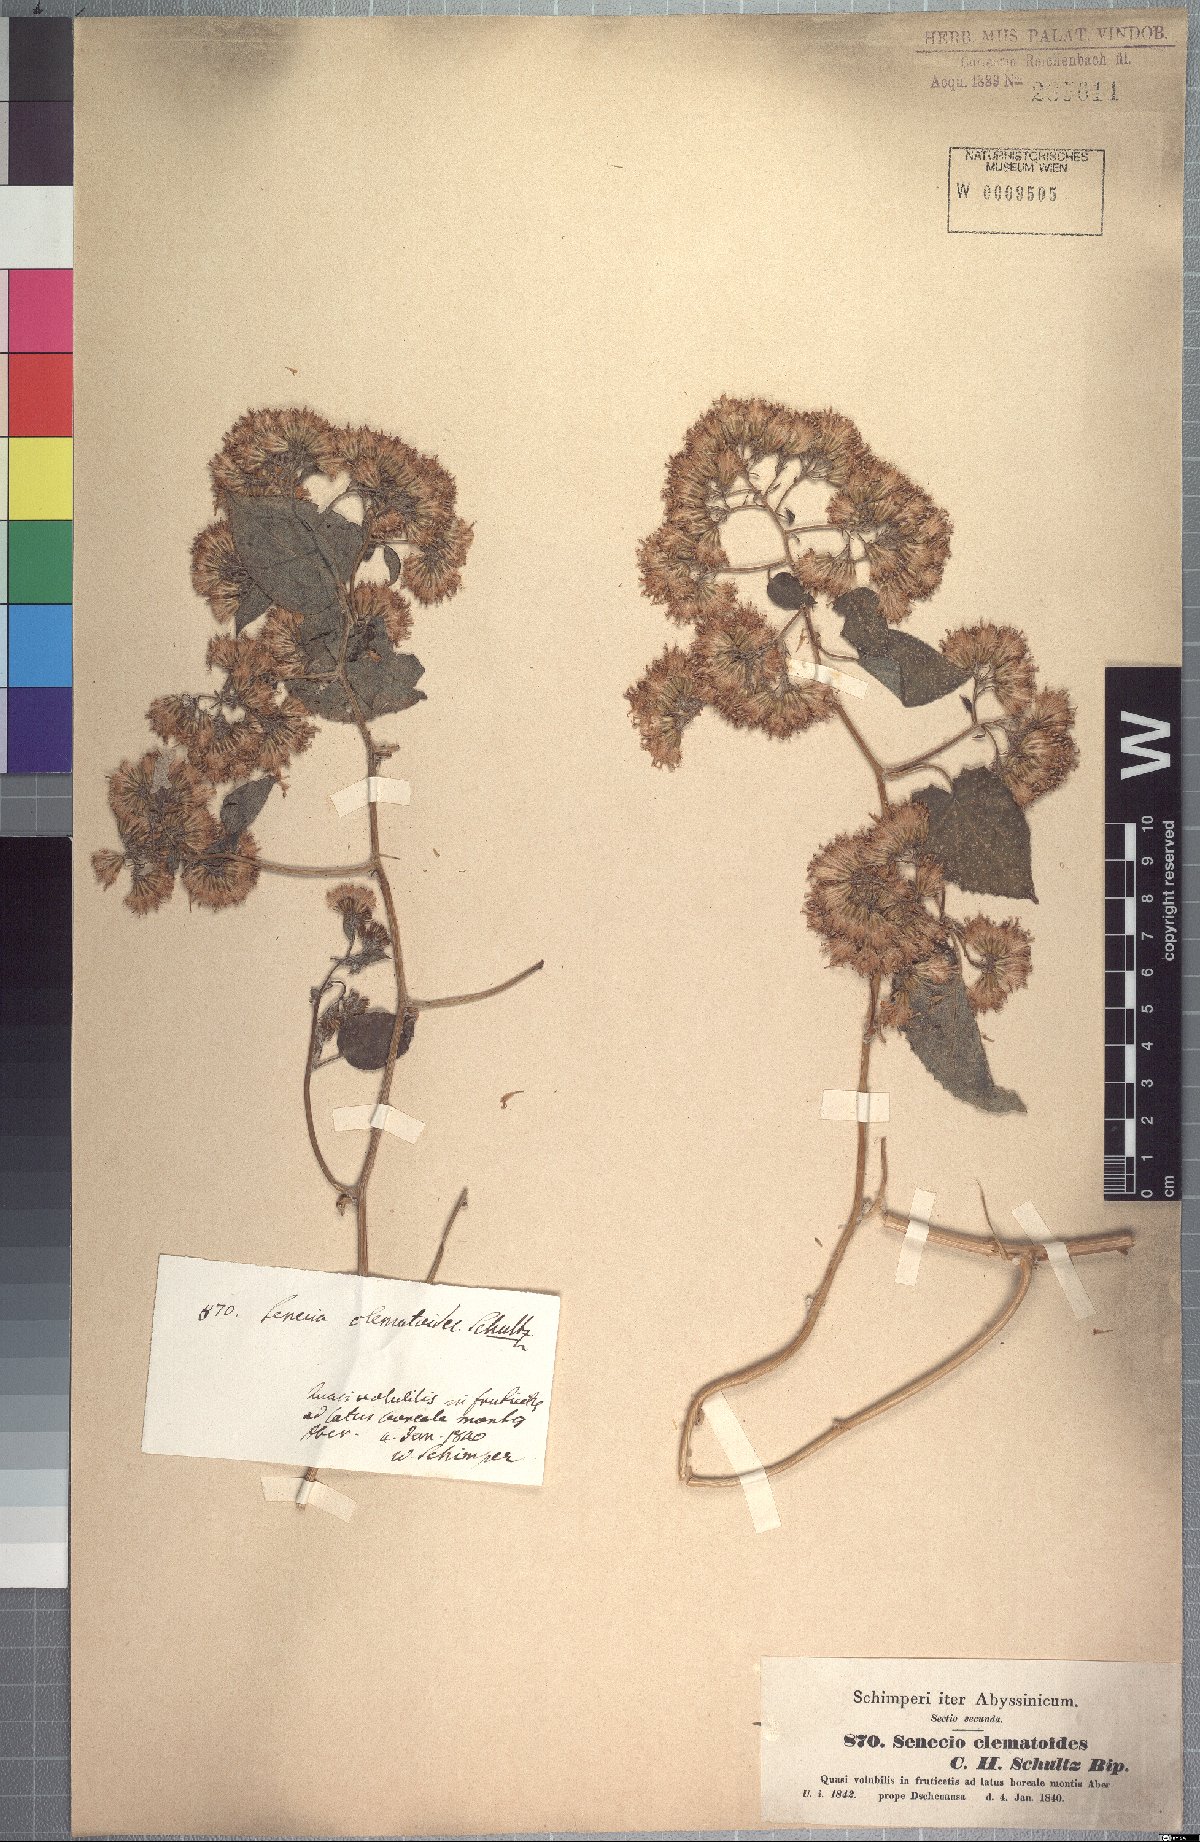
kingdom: Plantae
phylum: Tracheophyta
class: Magnoliopsida
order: Asterales
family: Asteraceae
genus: Mikaniopsis
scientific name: Mikaniopsis clematoides
